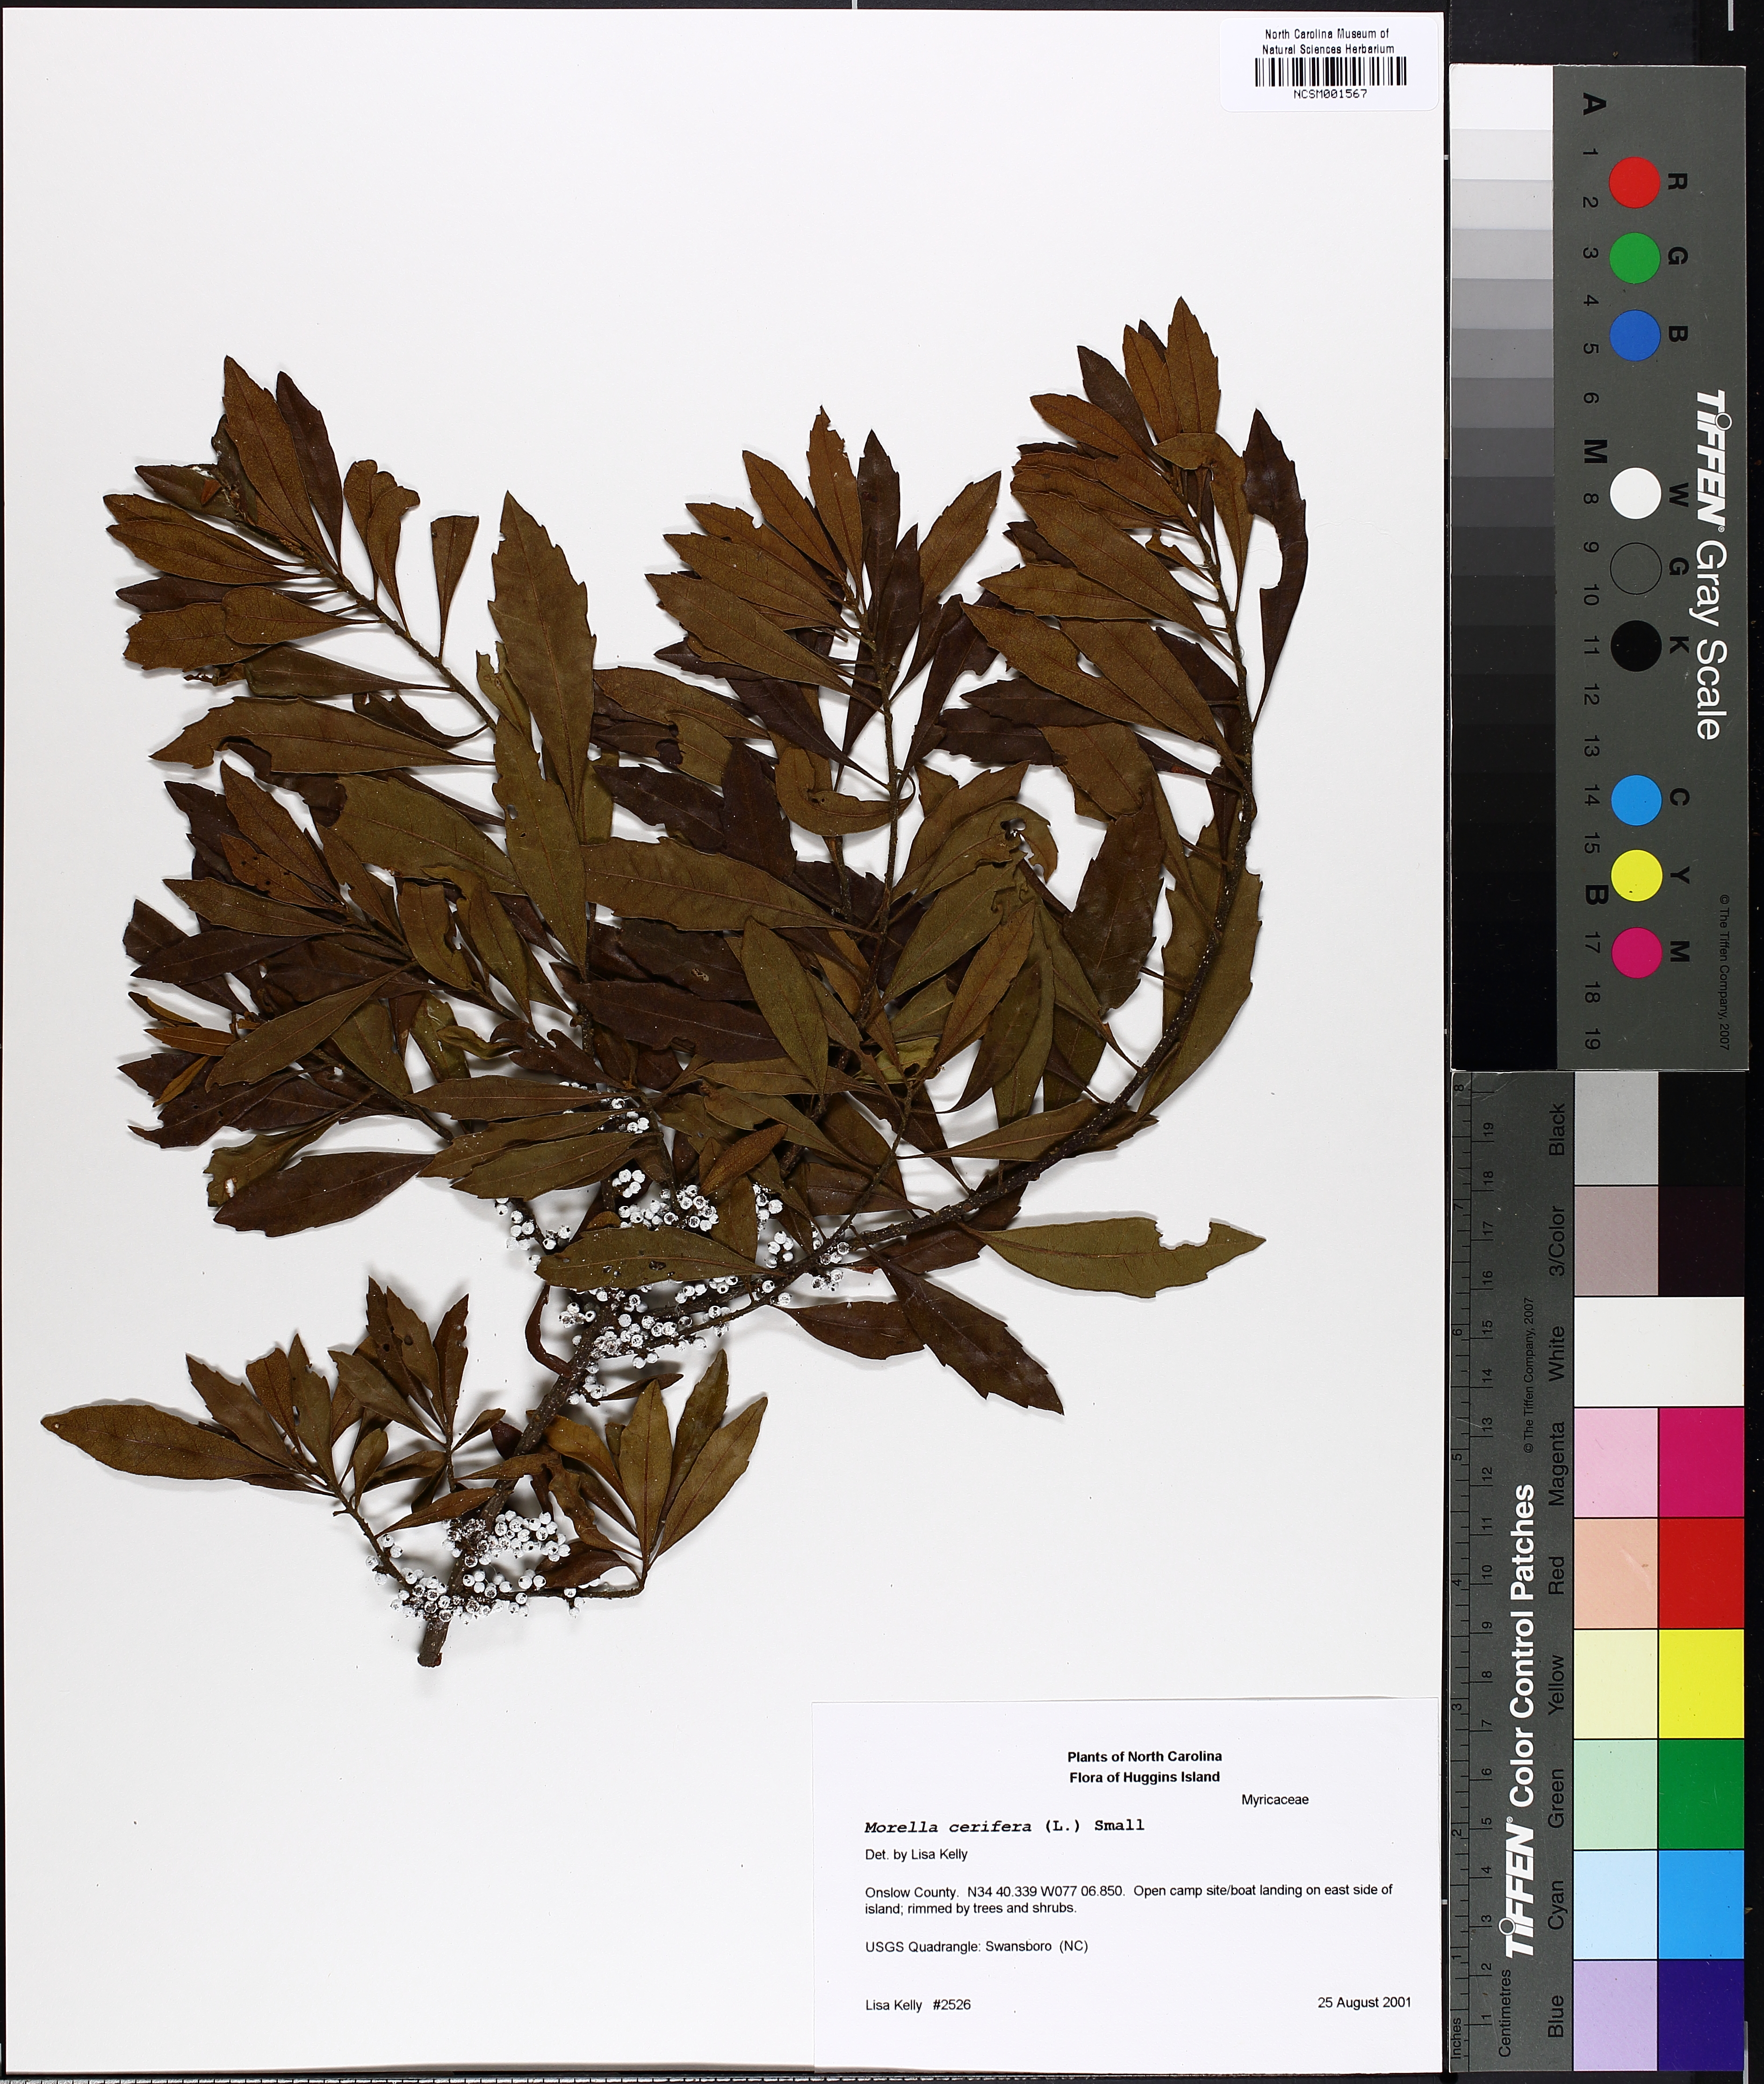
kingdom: Plantae
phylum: Tracheophyta
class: Magnoliopsida
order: Fagales
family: Myricaceae
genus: Morella
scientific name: Morella cerifera
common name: Wax myrtle
